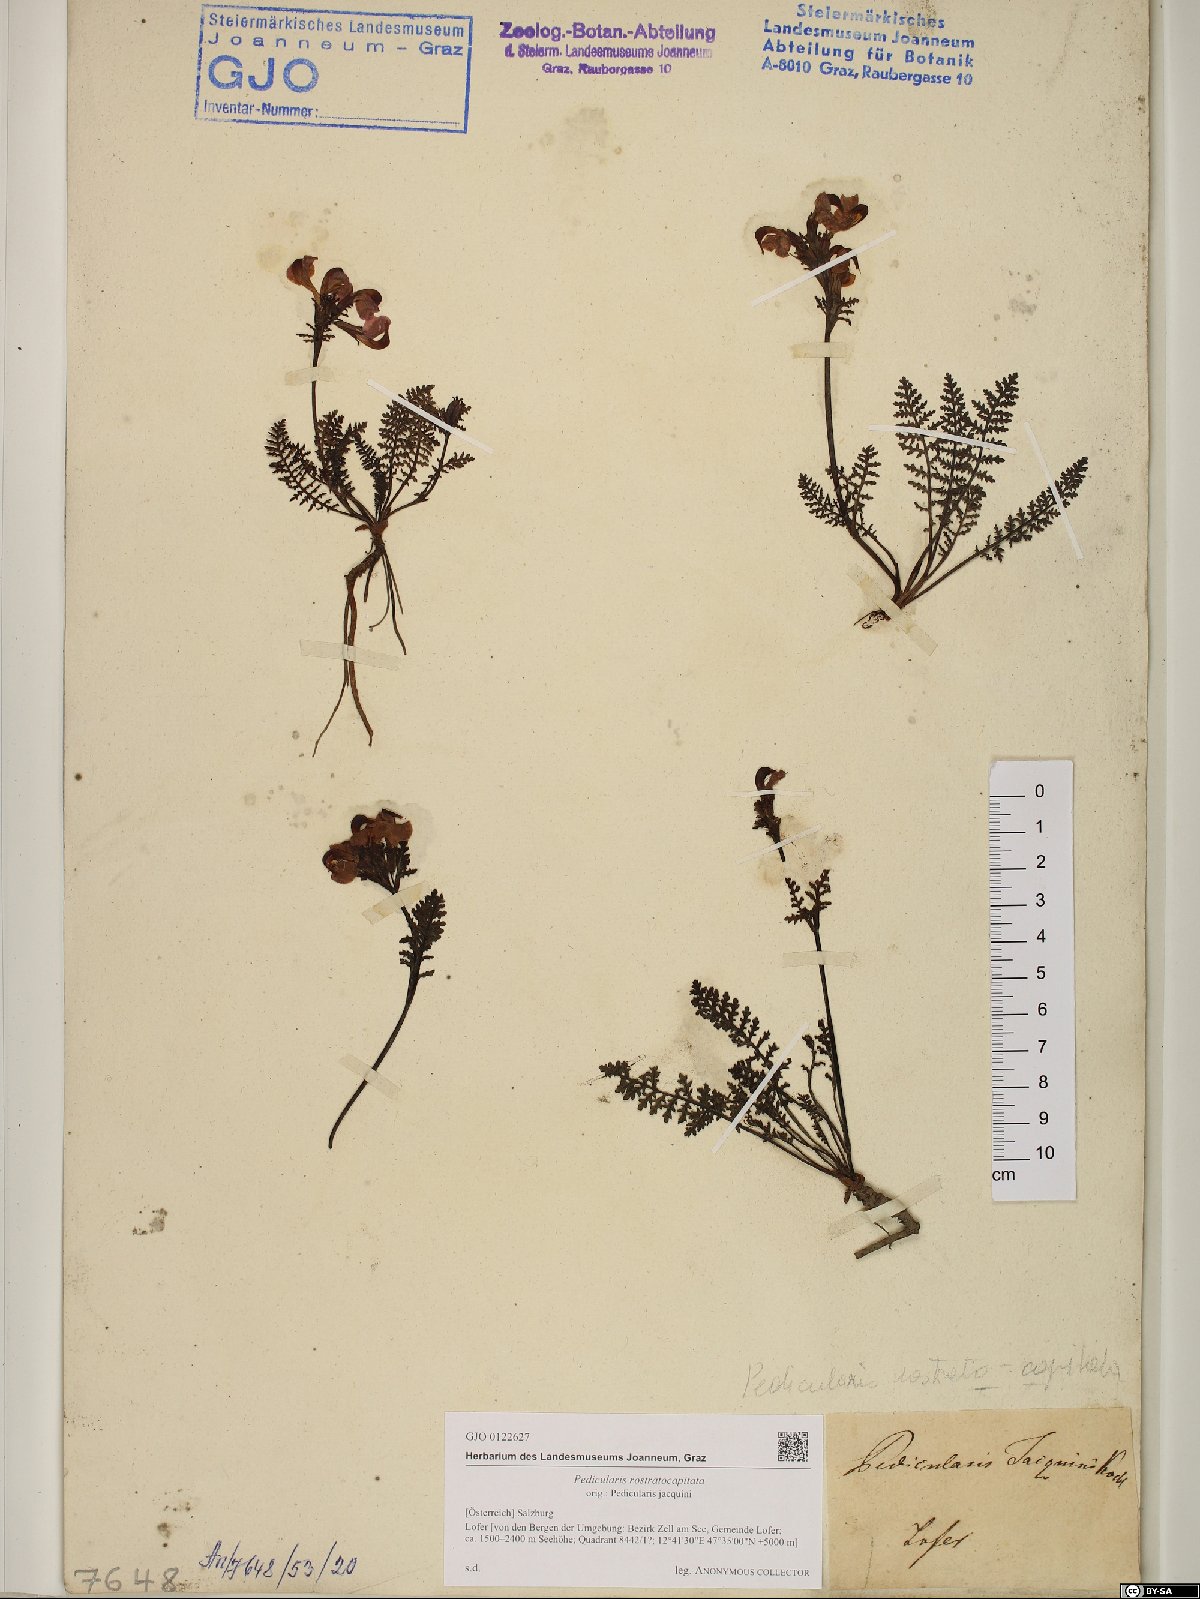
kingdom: Plantae
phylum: Tracheophyta
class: Magnoliopsida
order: Lamiales
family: Orobanchaceae
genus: Pedicularis
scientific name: Pedicularis rostratocapitata
